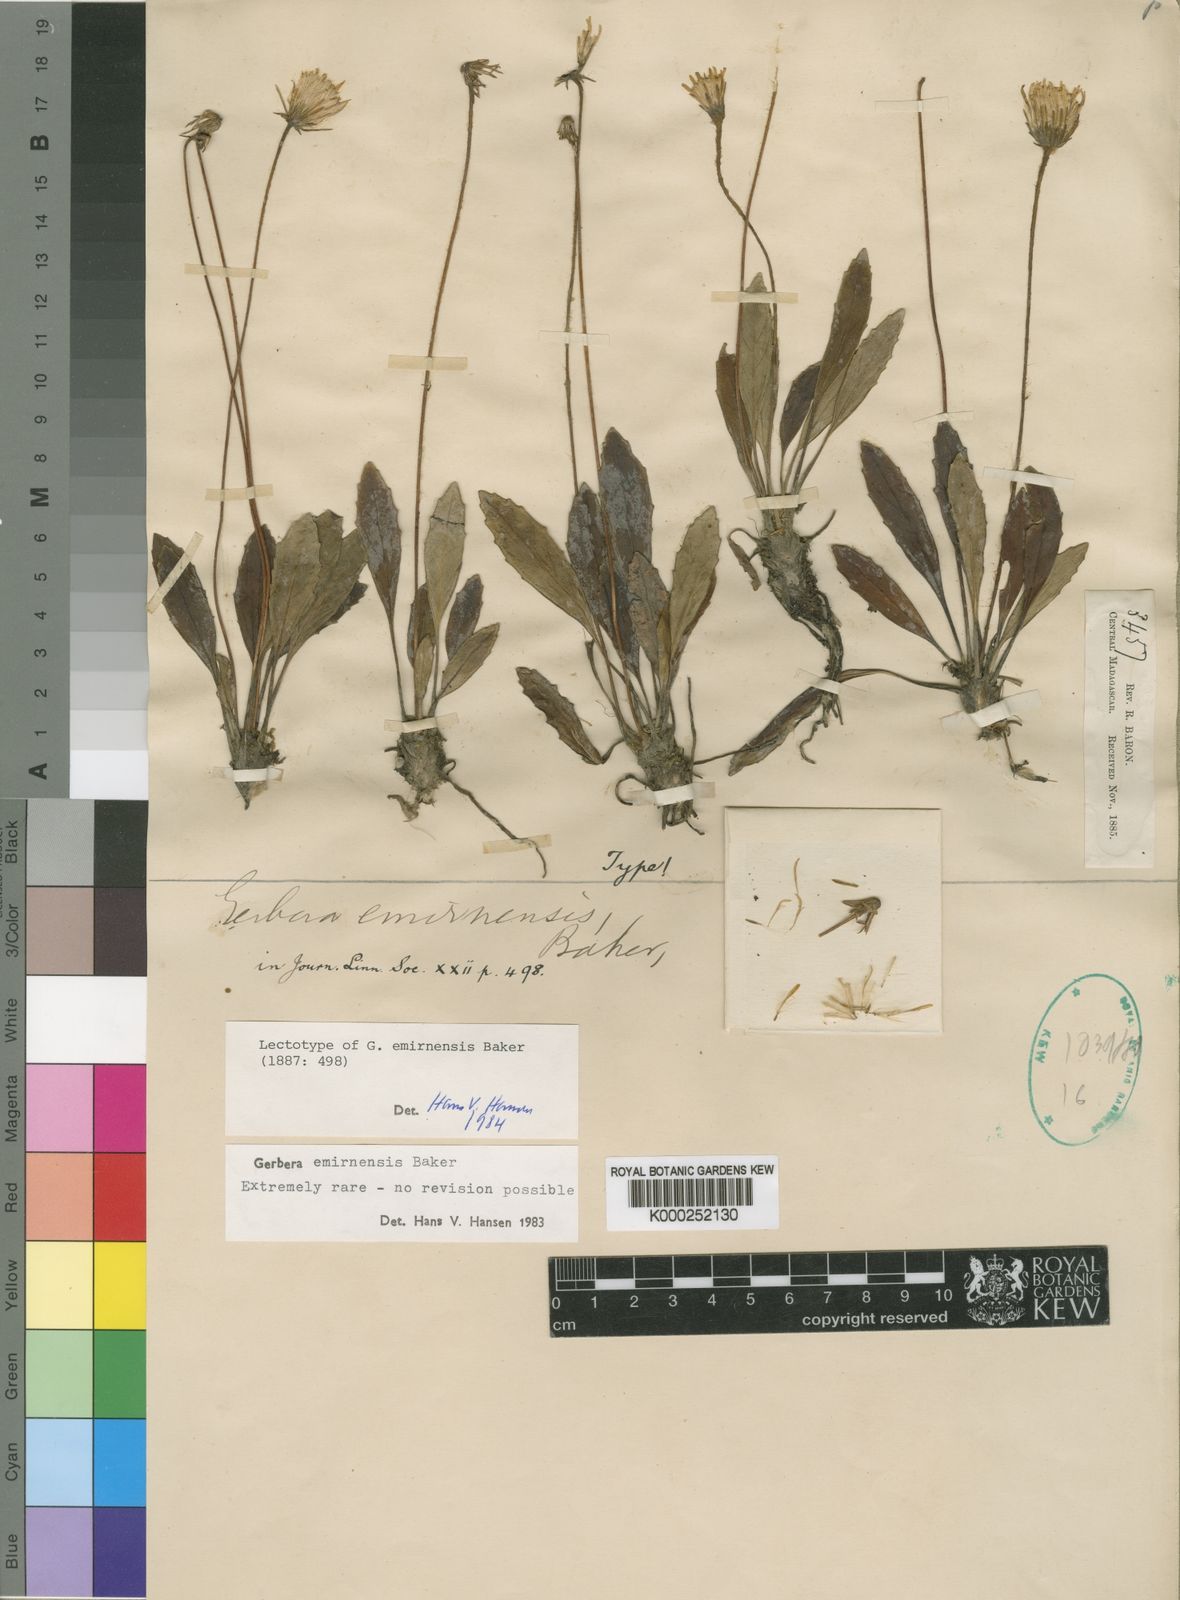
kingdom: Plantae
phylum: Tracheophyta
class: Magnoliopsida
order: Asterales
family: Asteraceae
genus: Gerbera
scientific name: Gerbera emirnensis
